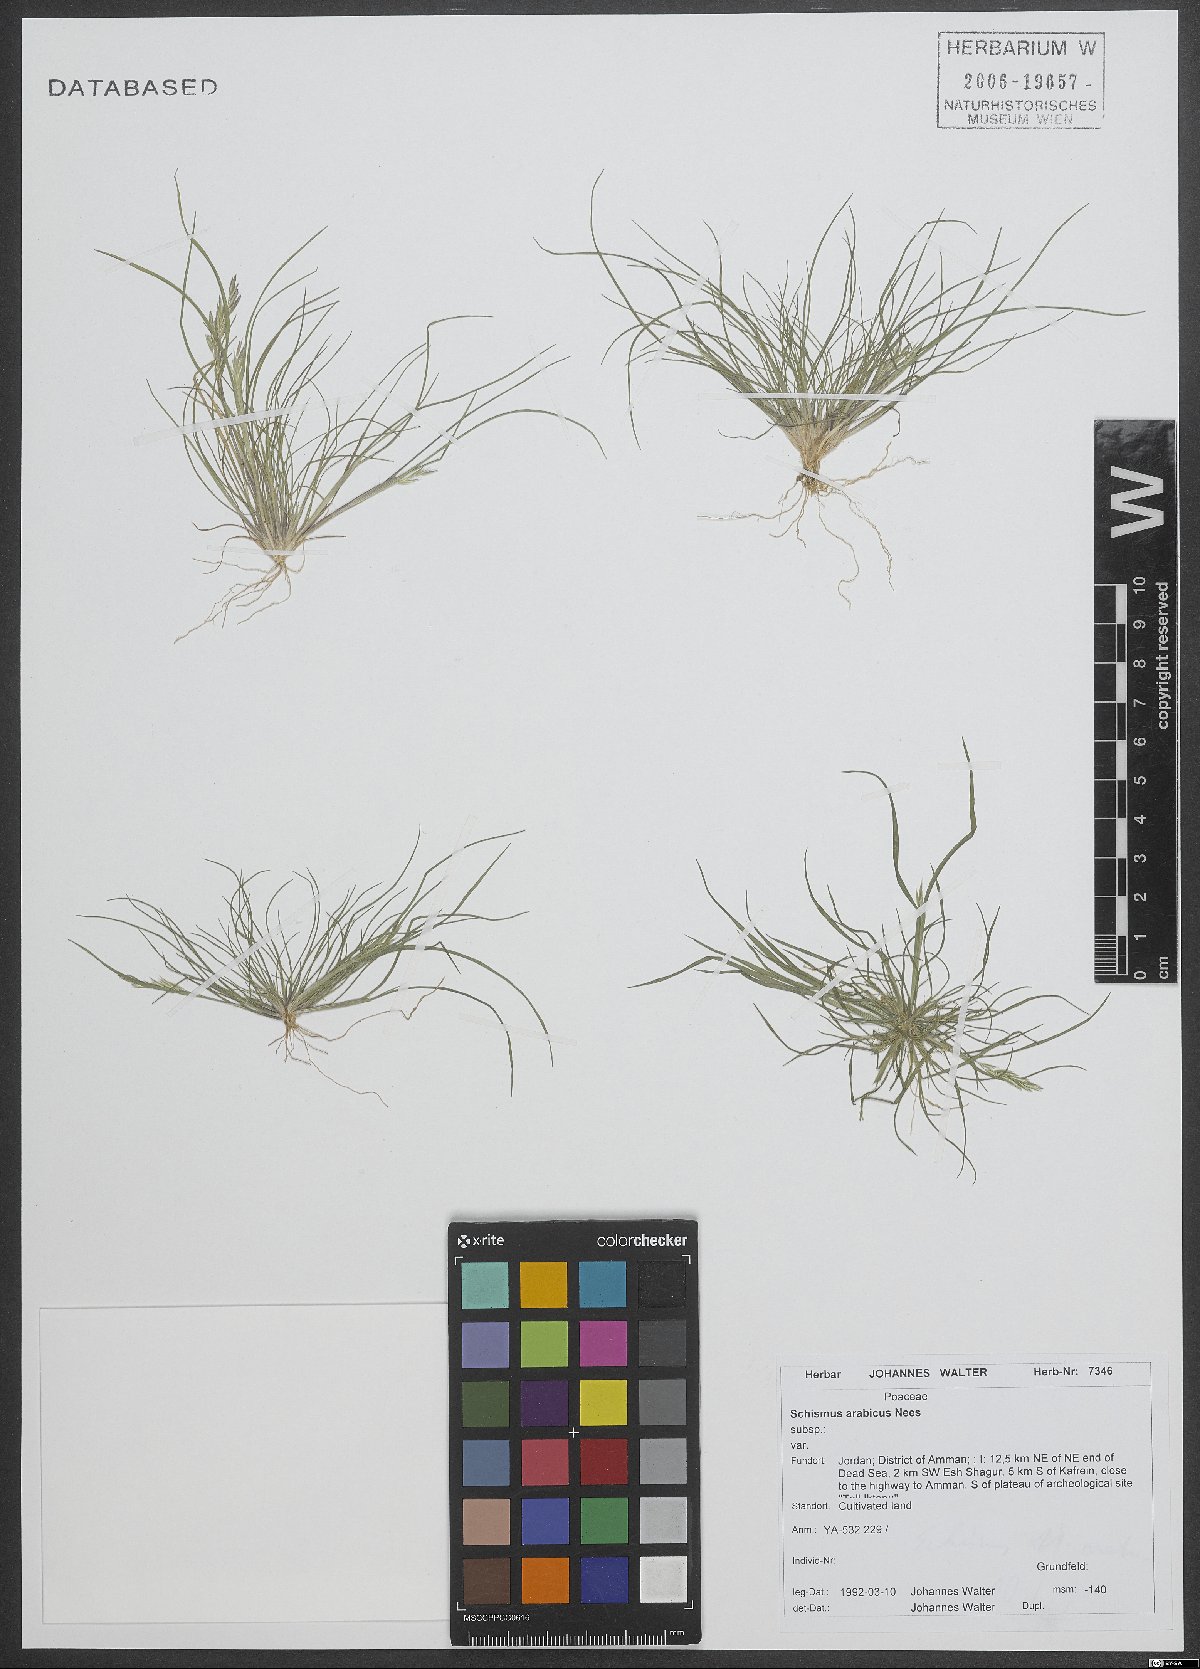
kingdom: Plantae
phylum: Tracheophyta
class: Liliopsida
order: Poales
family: Poaceae
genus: Schismus
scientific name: Schismus arabicus
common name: Arabian schismus
